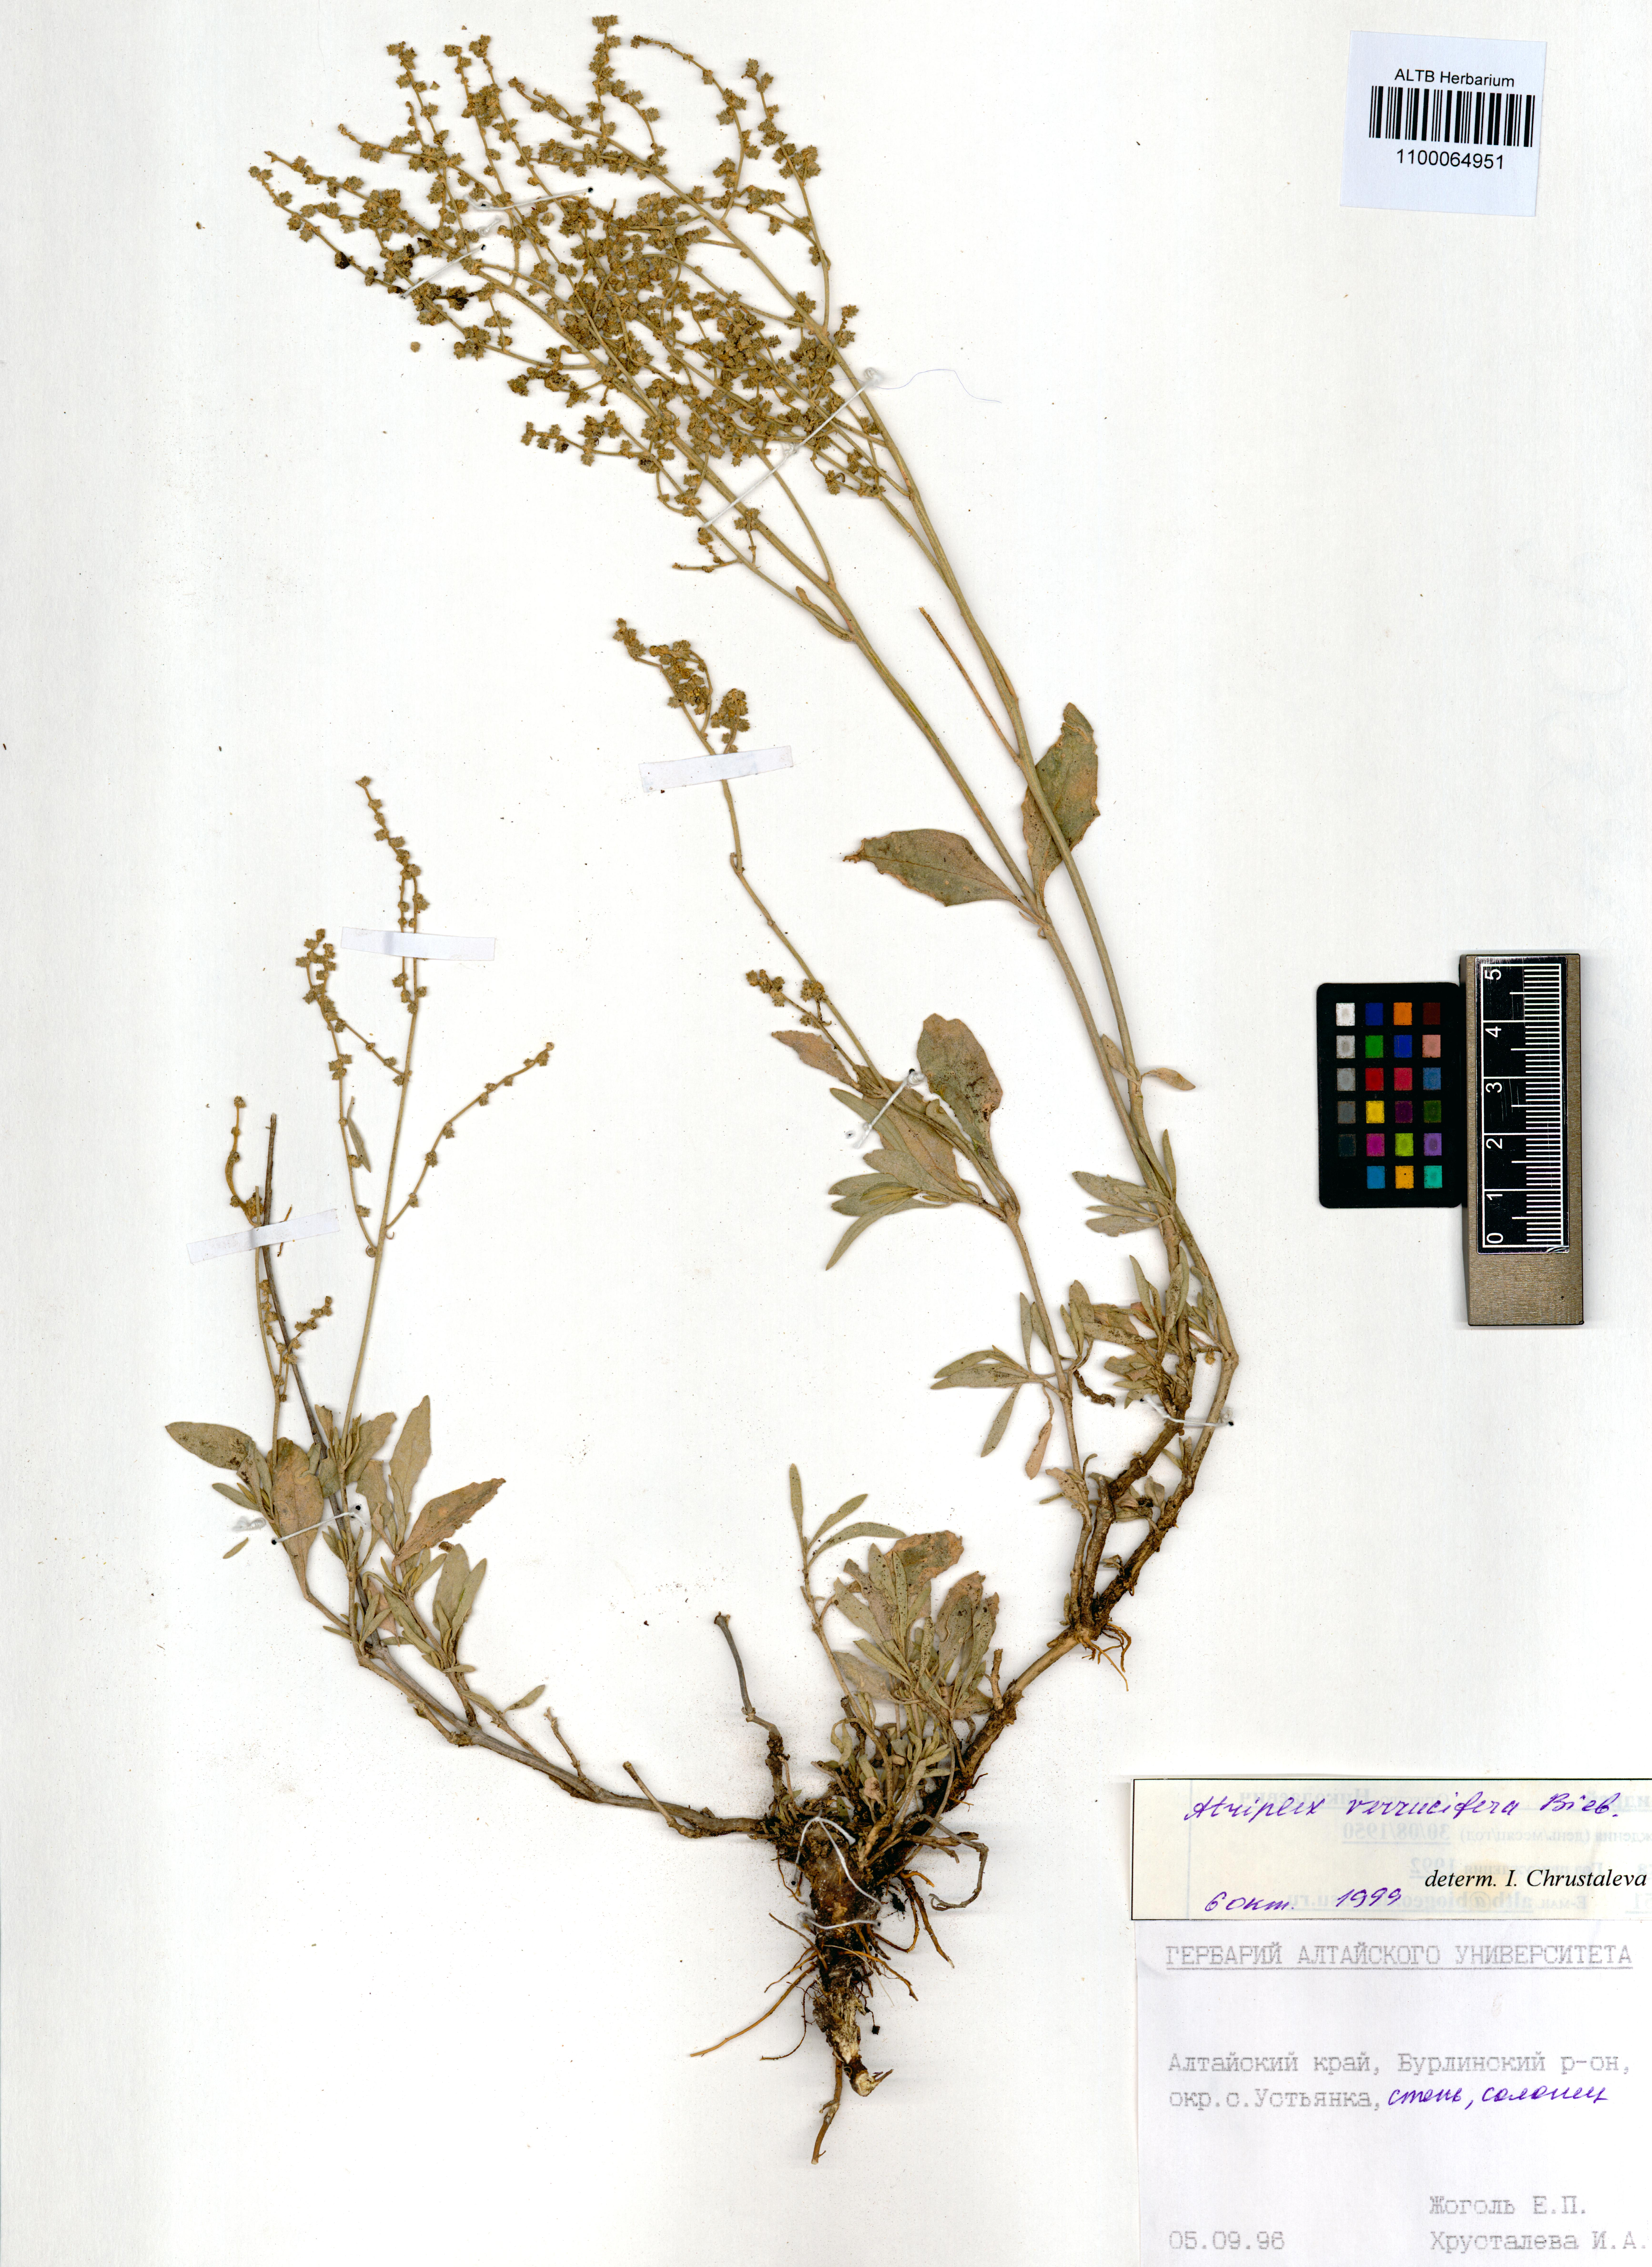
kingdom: Plantae
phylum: Tracheophyta
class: Magnoliopsida
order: Caryophyllales
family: Amaranthaceae
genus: Halimione
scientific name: Halimione verrucifera
